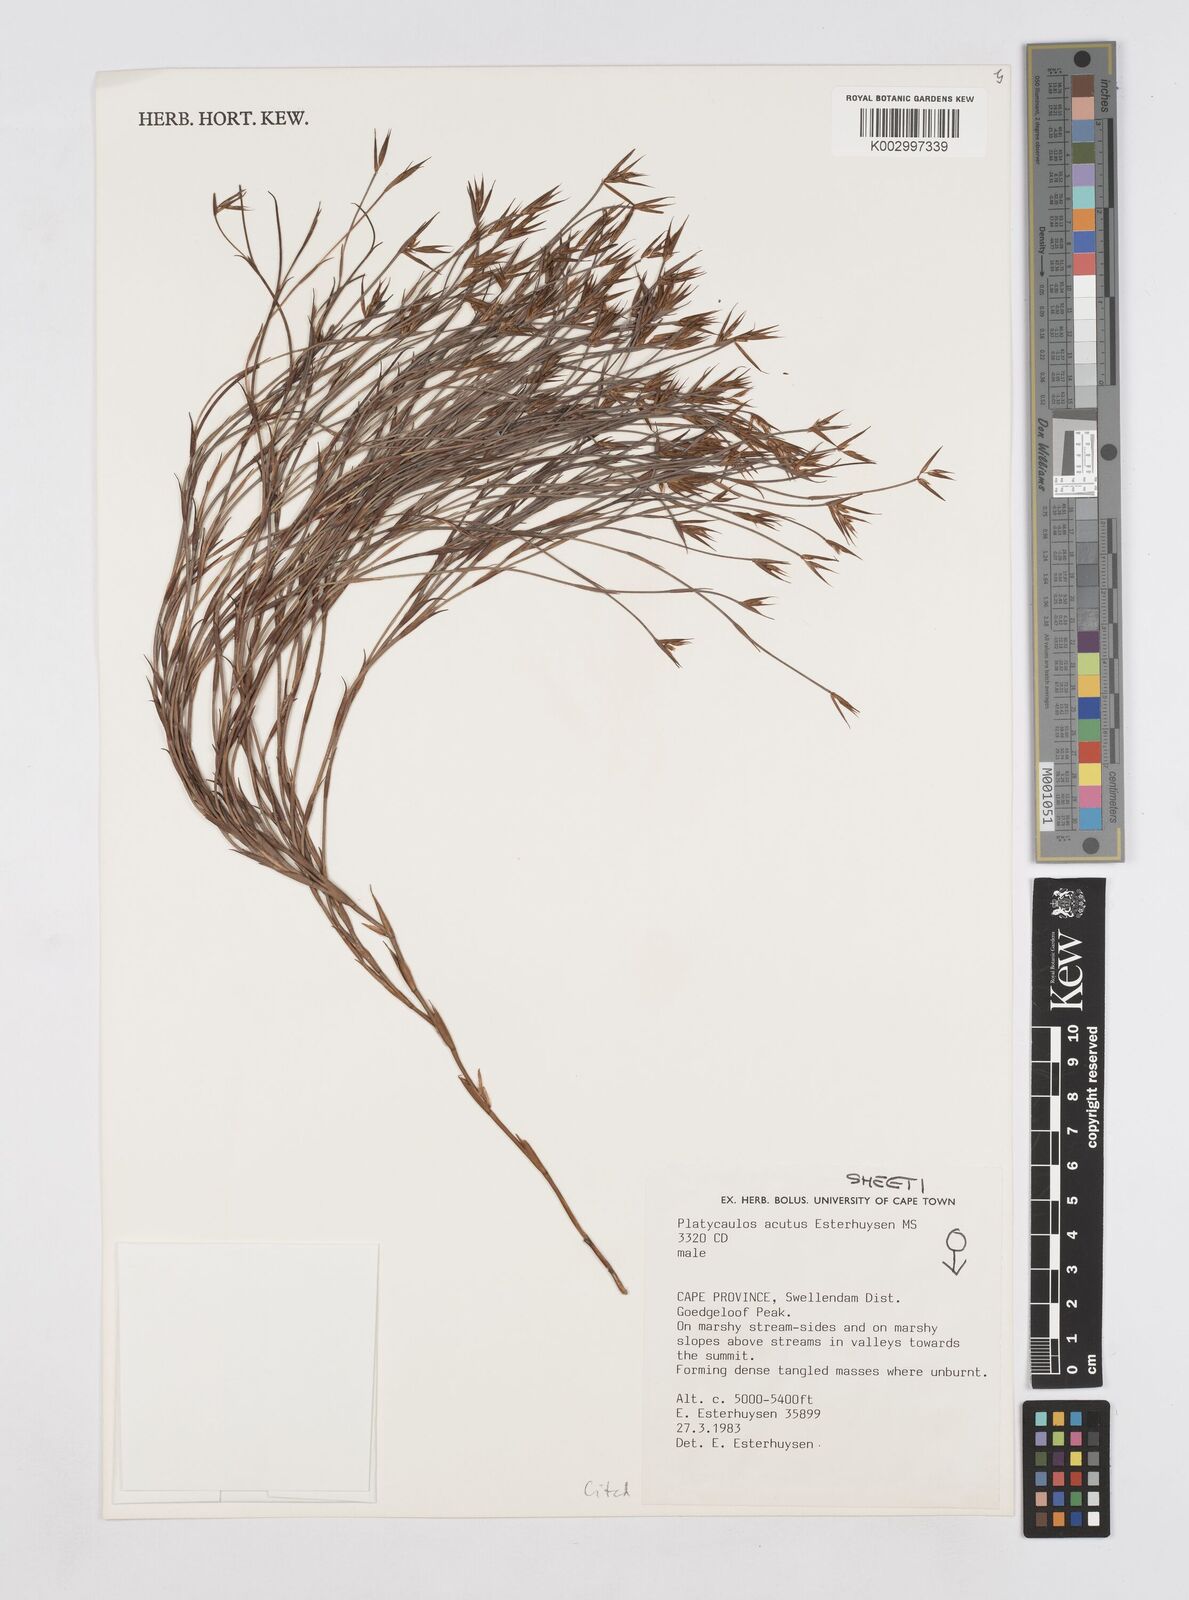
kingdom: Plantae
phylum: Tracheophyta
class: Liliopsida
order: Poales
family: Restionaceae
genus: Platycaulos
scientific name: Platycaulos acutus
